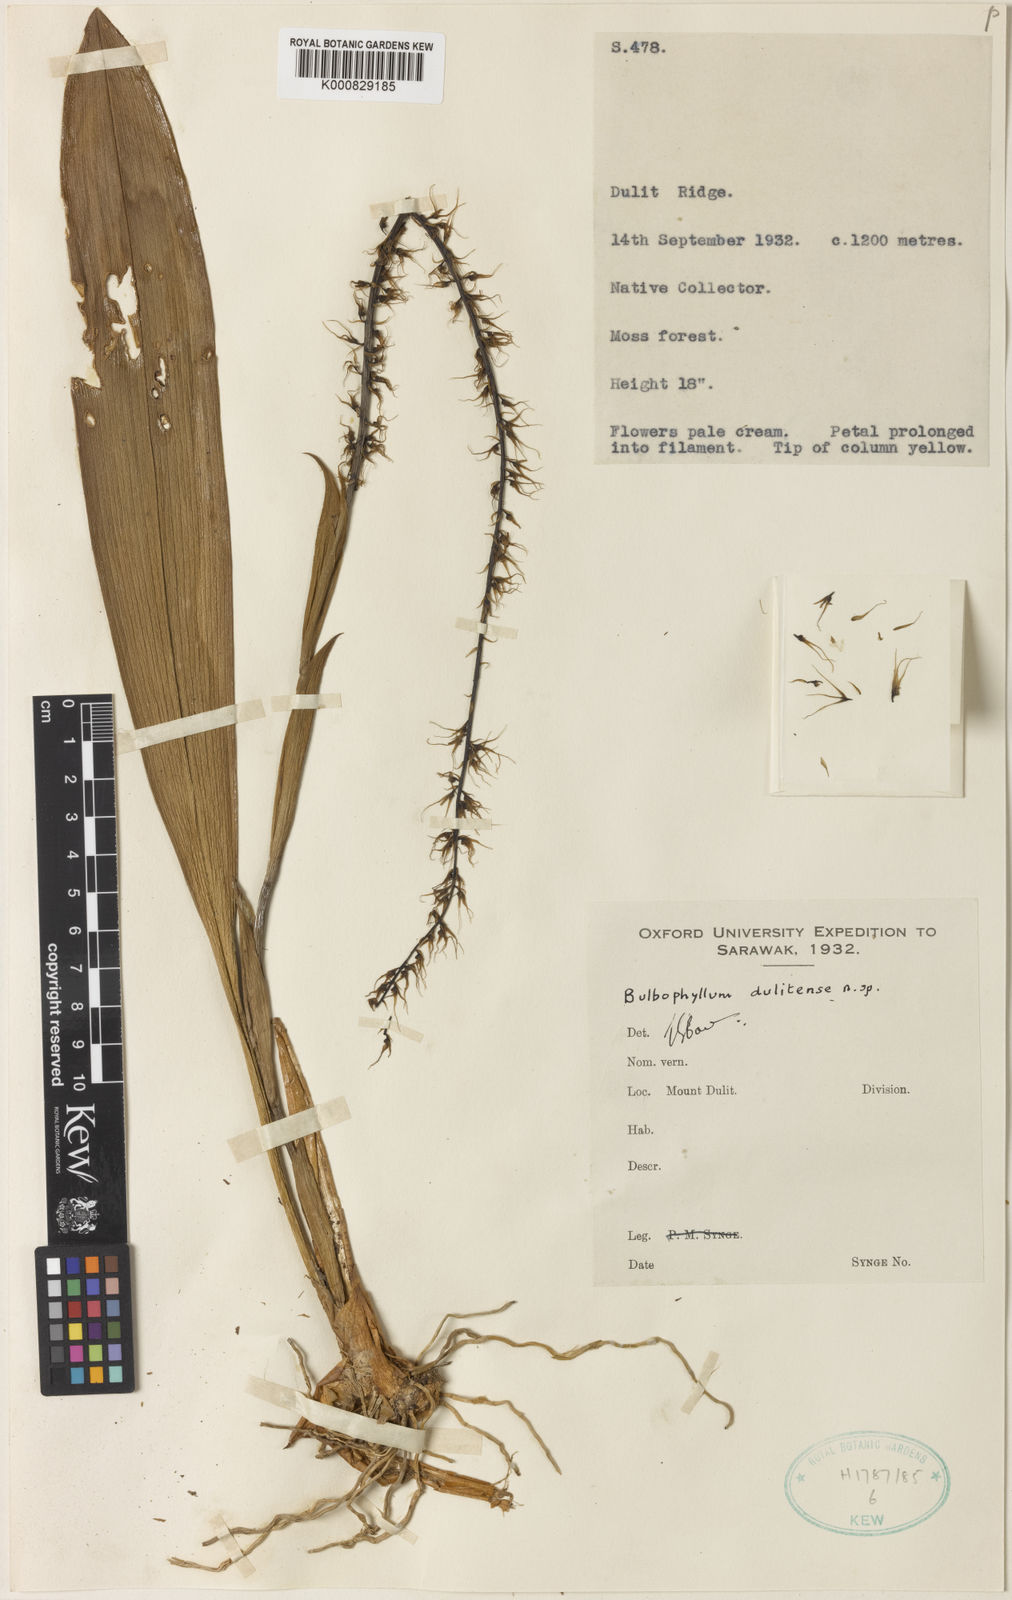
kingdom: Plantae
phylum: Tracheophyta
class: Liliopsida
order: Asparagales
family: Orchidaceae
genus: Bulbophyllum
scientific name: Bulbophyllum caudatisepalum
